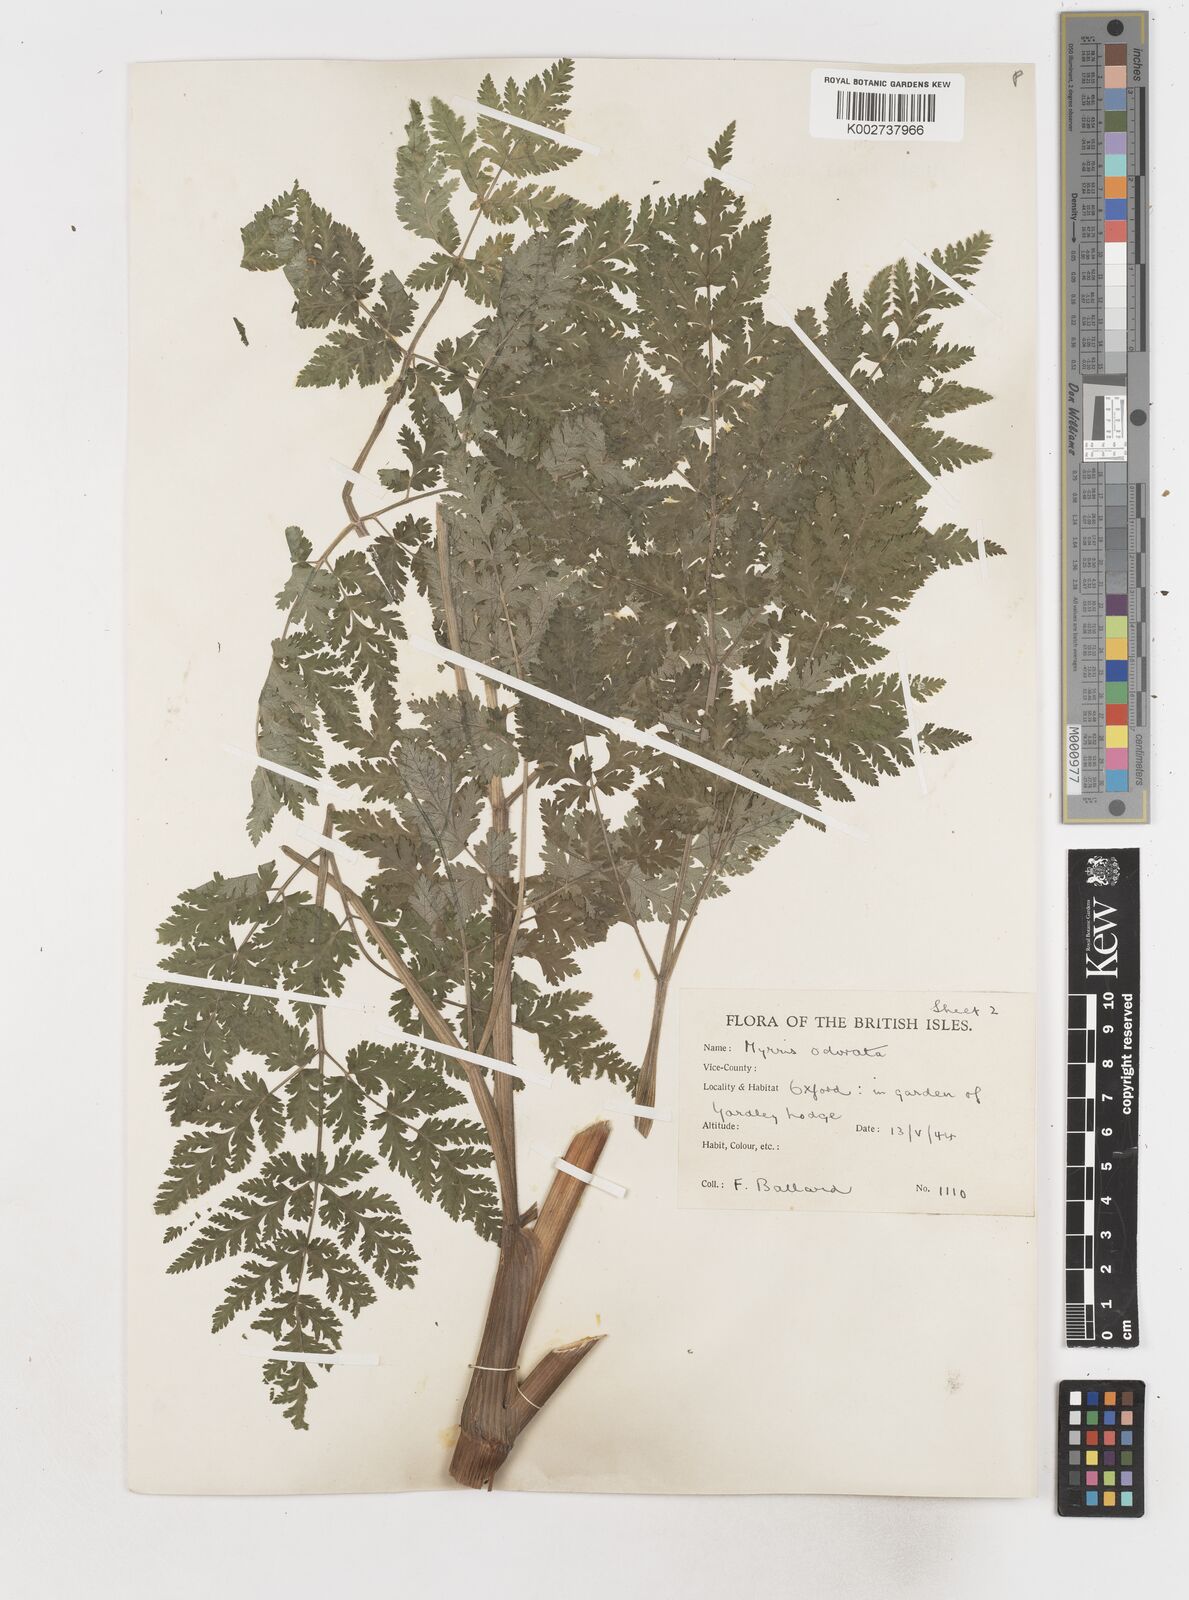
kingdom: Plantae
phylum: Tracheophyta
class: Magnoliopsida
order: Apiales
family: Apiaceae
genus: Myrrhis
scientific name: Myrrhis odorata
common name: Sweet cicely
